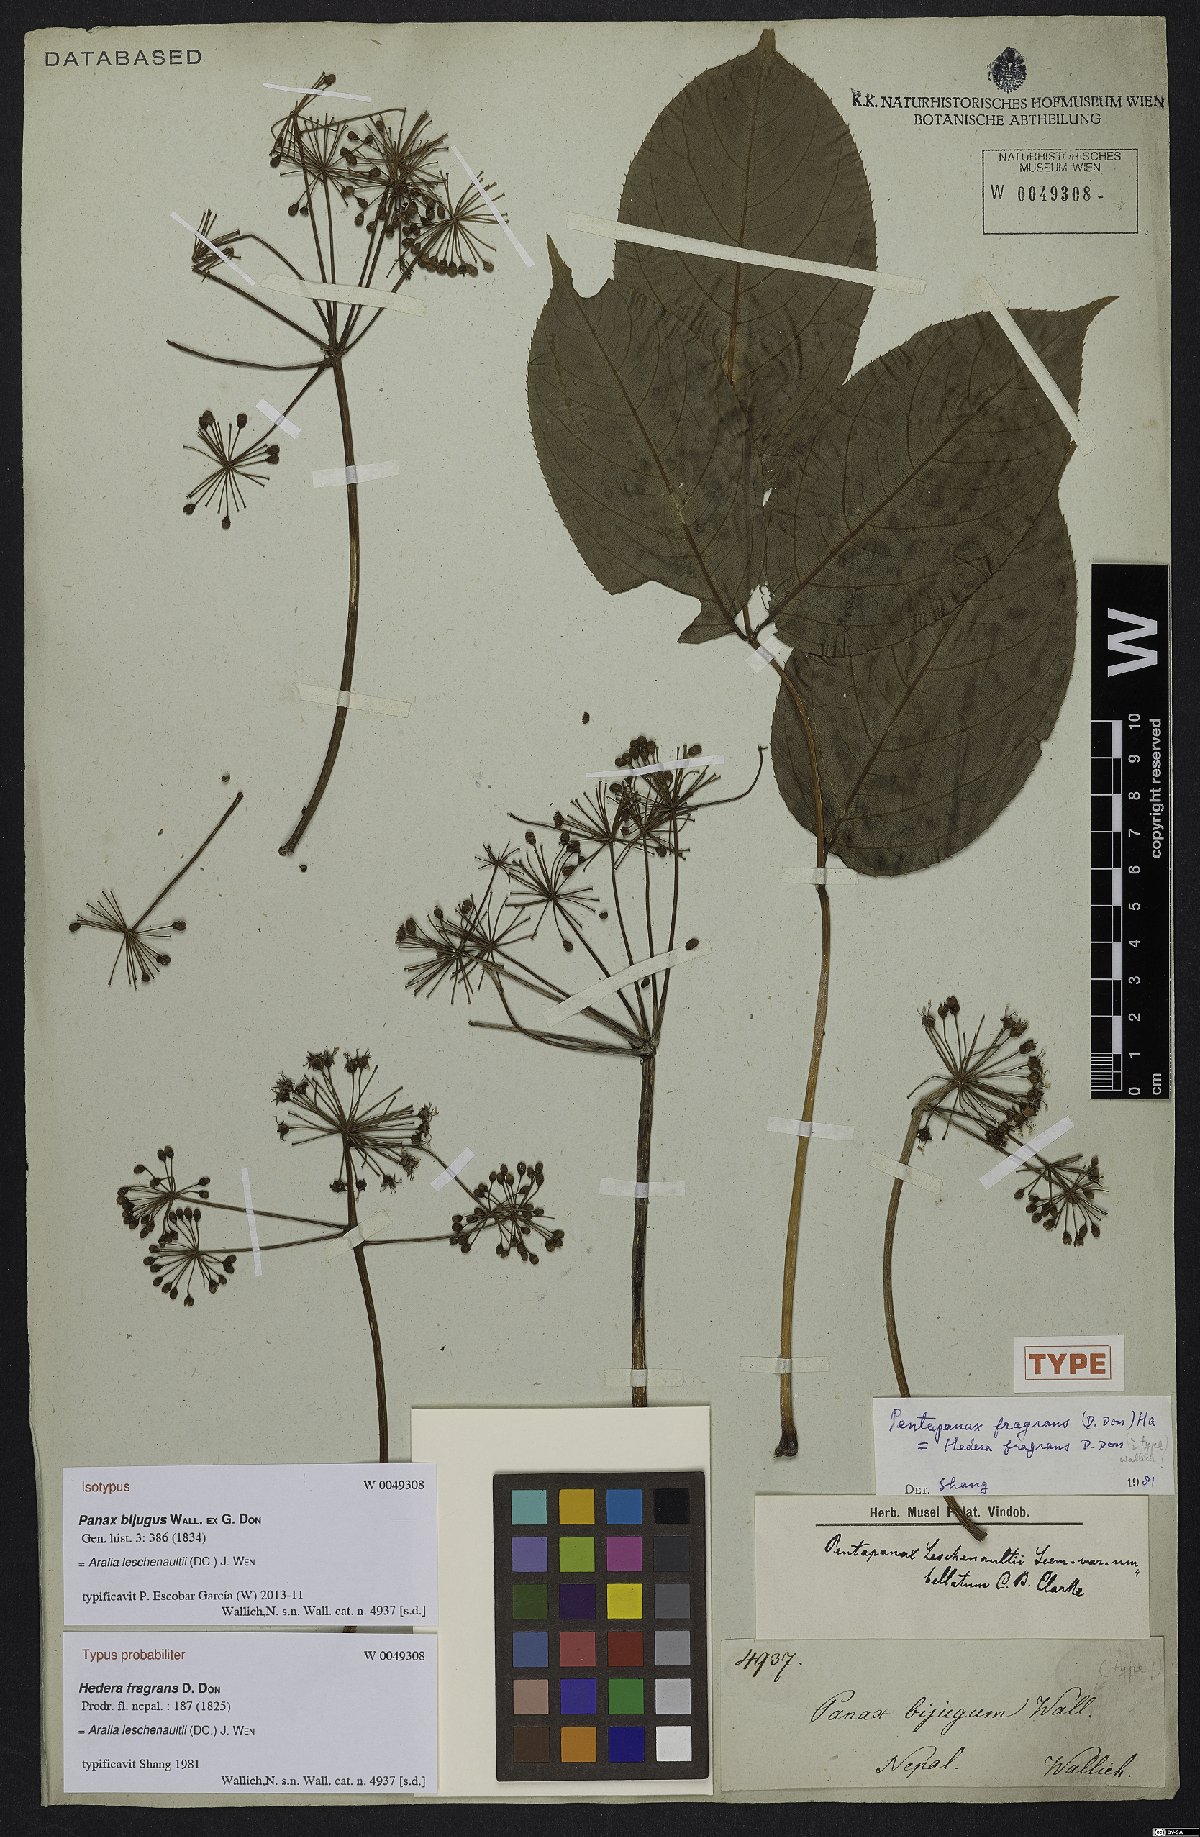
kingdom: Plantae
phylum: Tracheophyta
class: Magnoliopsida
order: Apiales
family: Araliaceae
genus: Aralia
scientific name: Aralia leschenaultii
